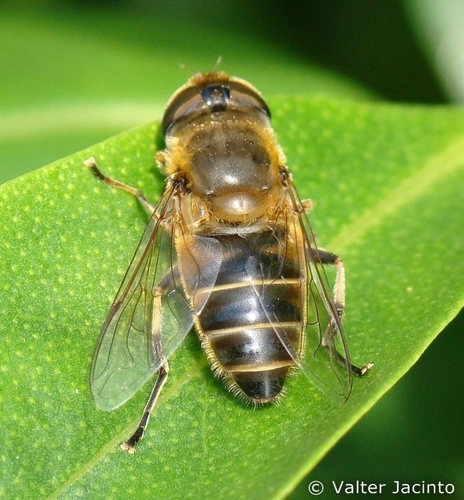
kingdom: Animalia
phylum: Arthropoda
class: Insecta
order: Diptera
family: Syrphidae
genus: Eristalis
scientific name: Eristalis pertinax
